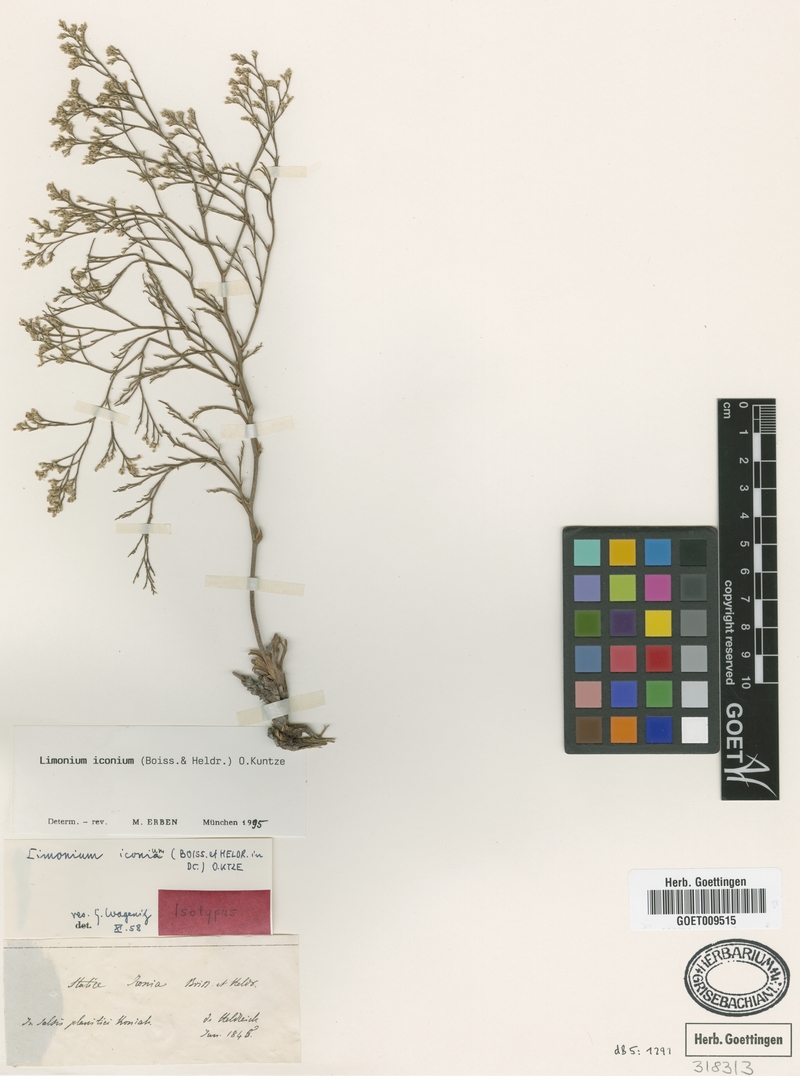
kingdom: Plantae
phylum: Tracheophyta
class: Magnoliopsida
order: Caryophyllales
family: Plumbaginaceae
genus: Limonium
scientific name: Limonium iconium
